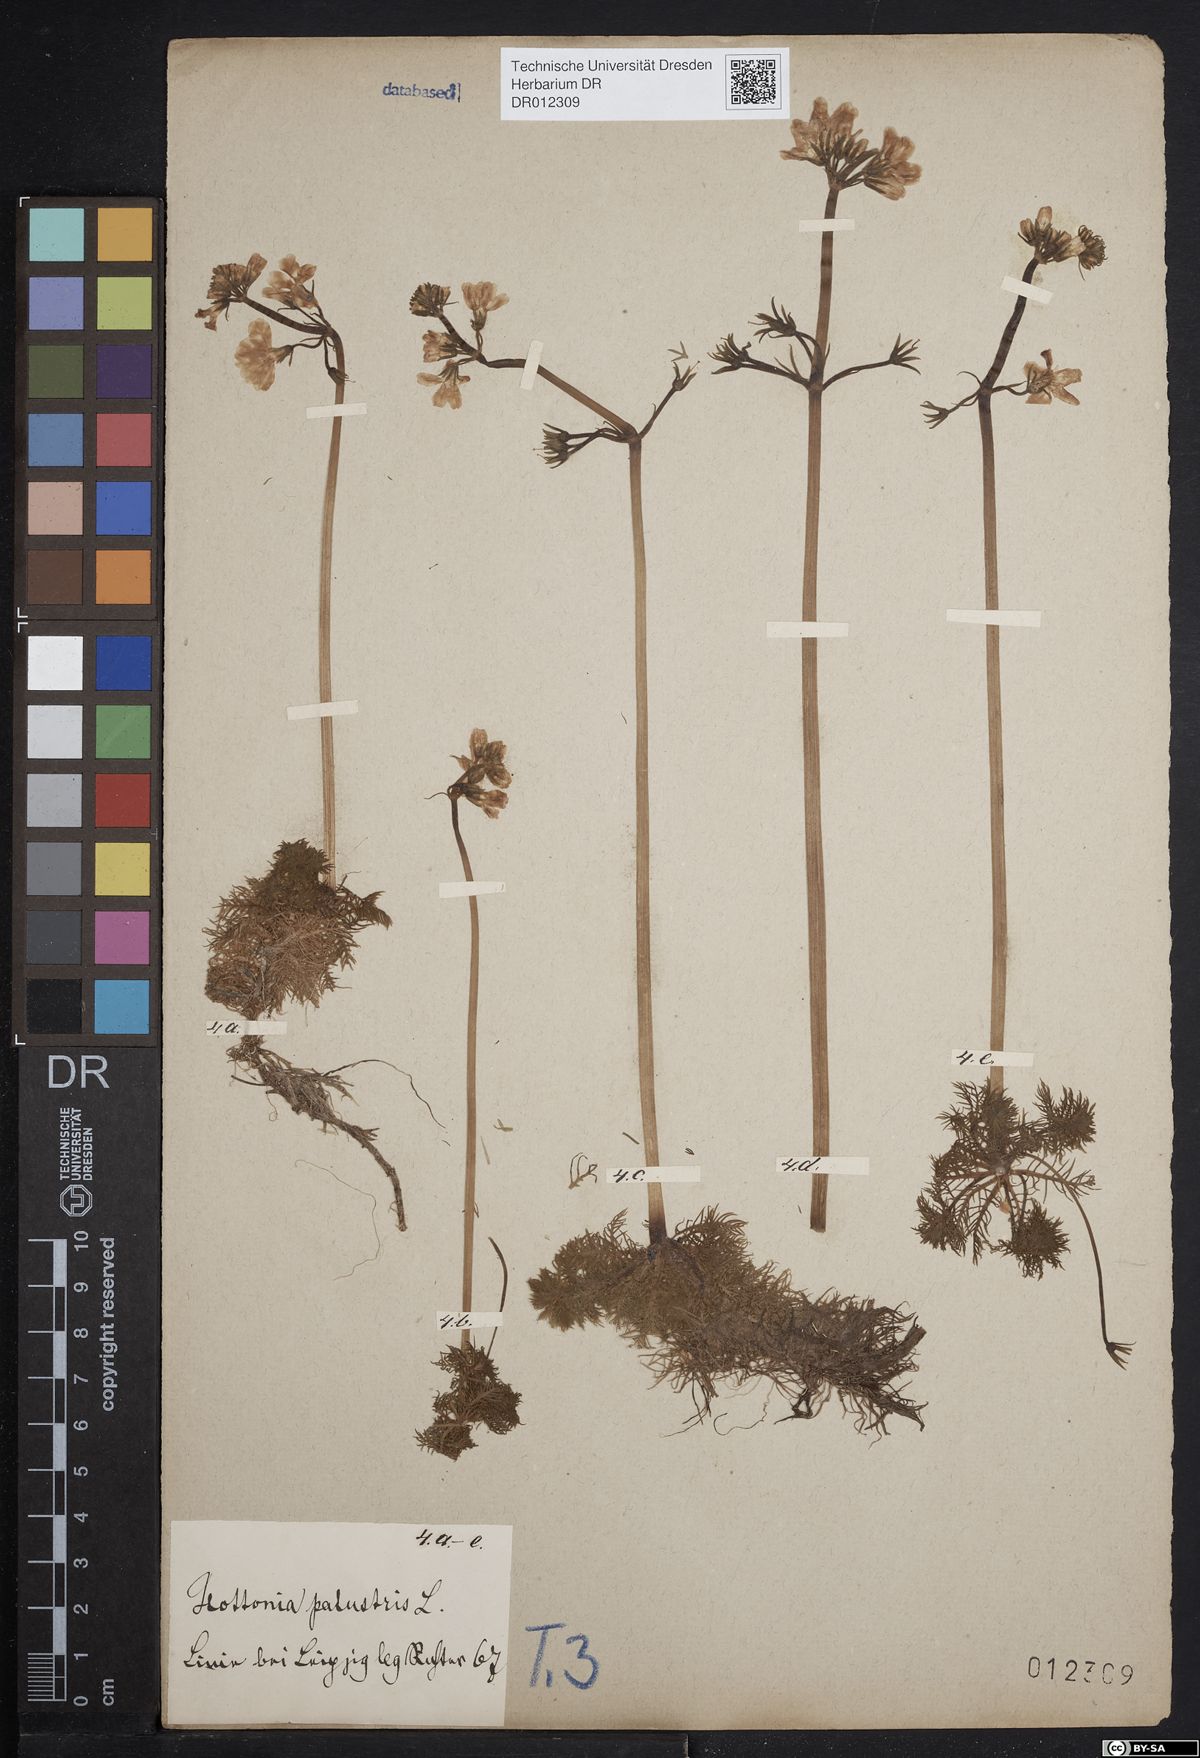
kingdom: Plantae
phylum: Tracheophyta
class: Magnoliopsida
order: Ericales
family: Primulaceae
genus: Hottonia
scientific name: Hottonia palustris
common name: Water-violet
